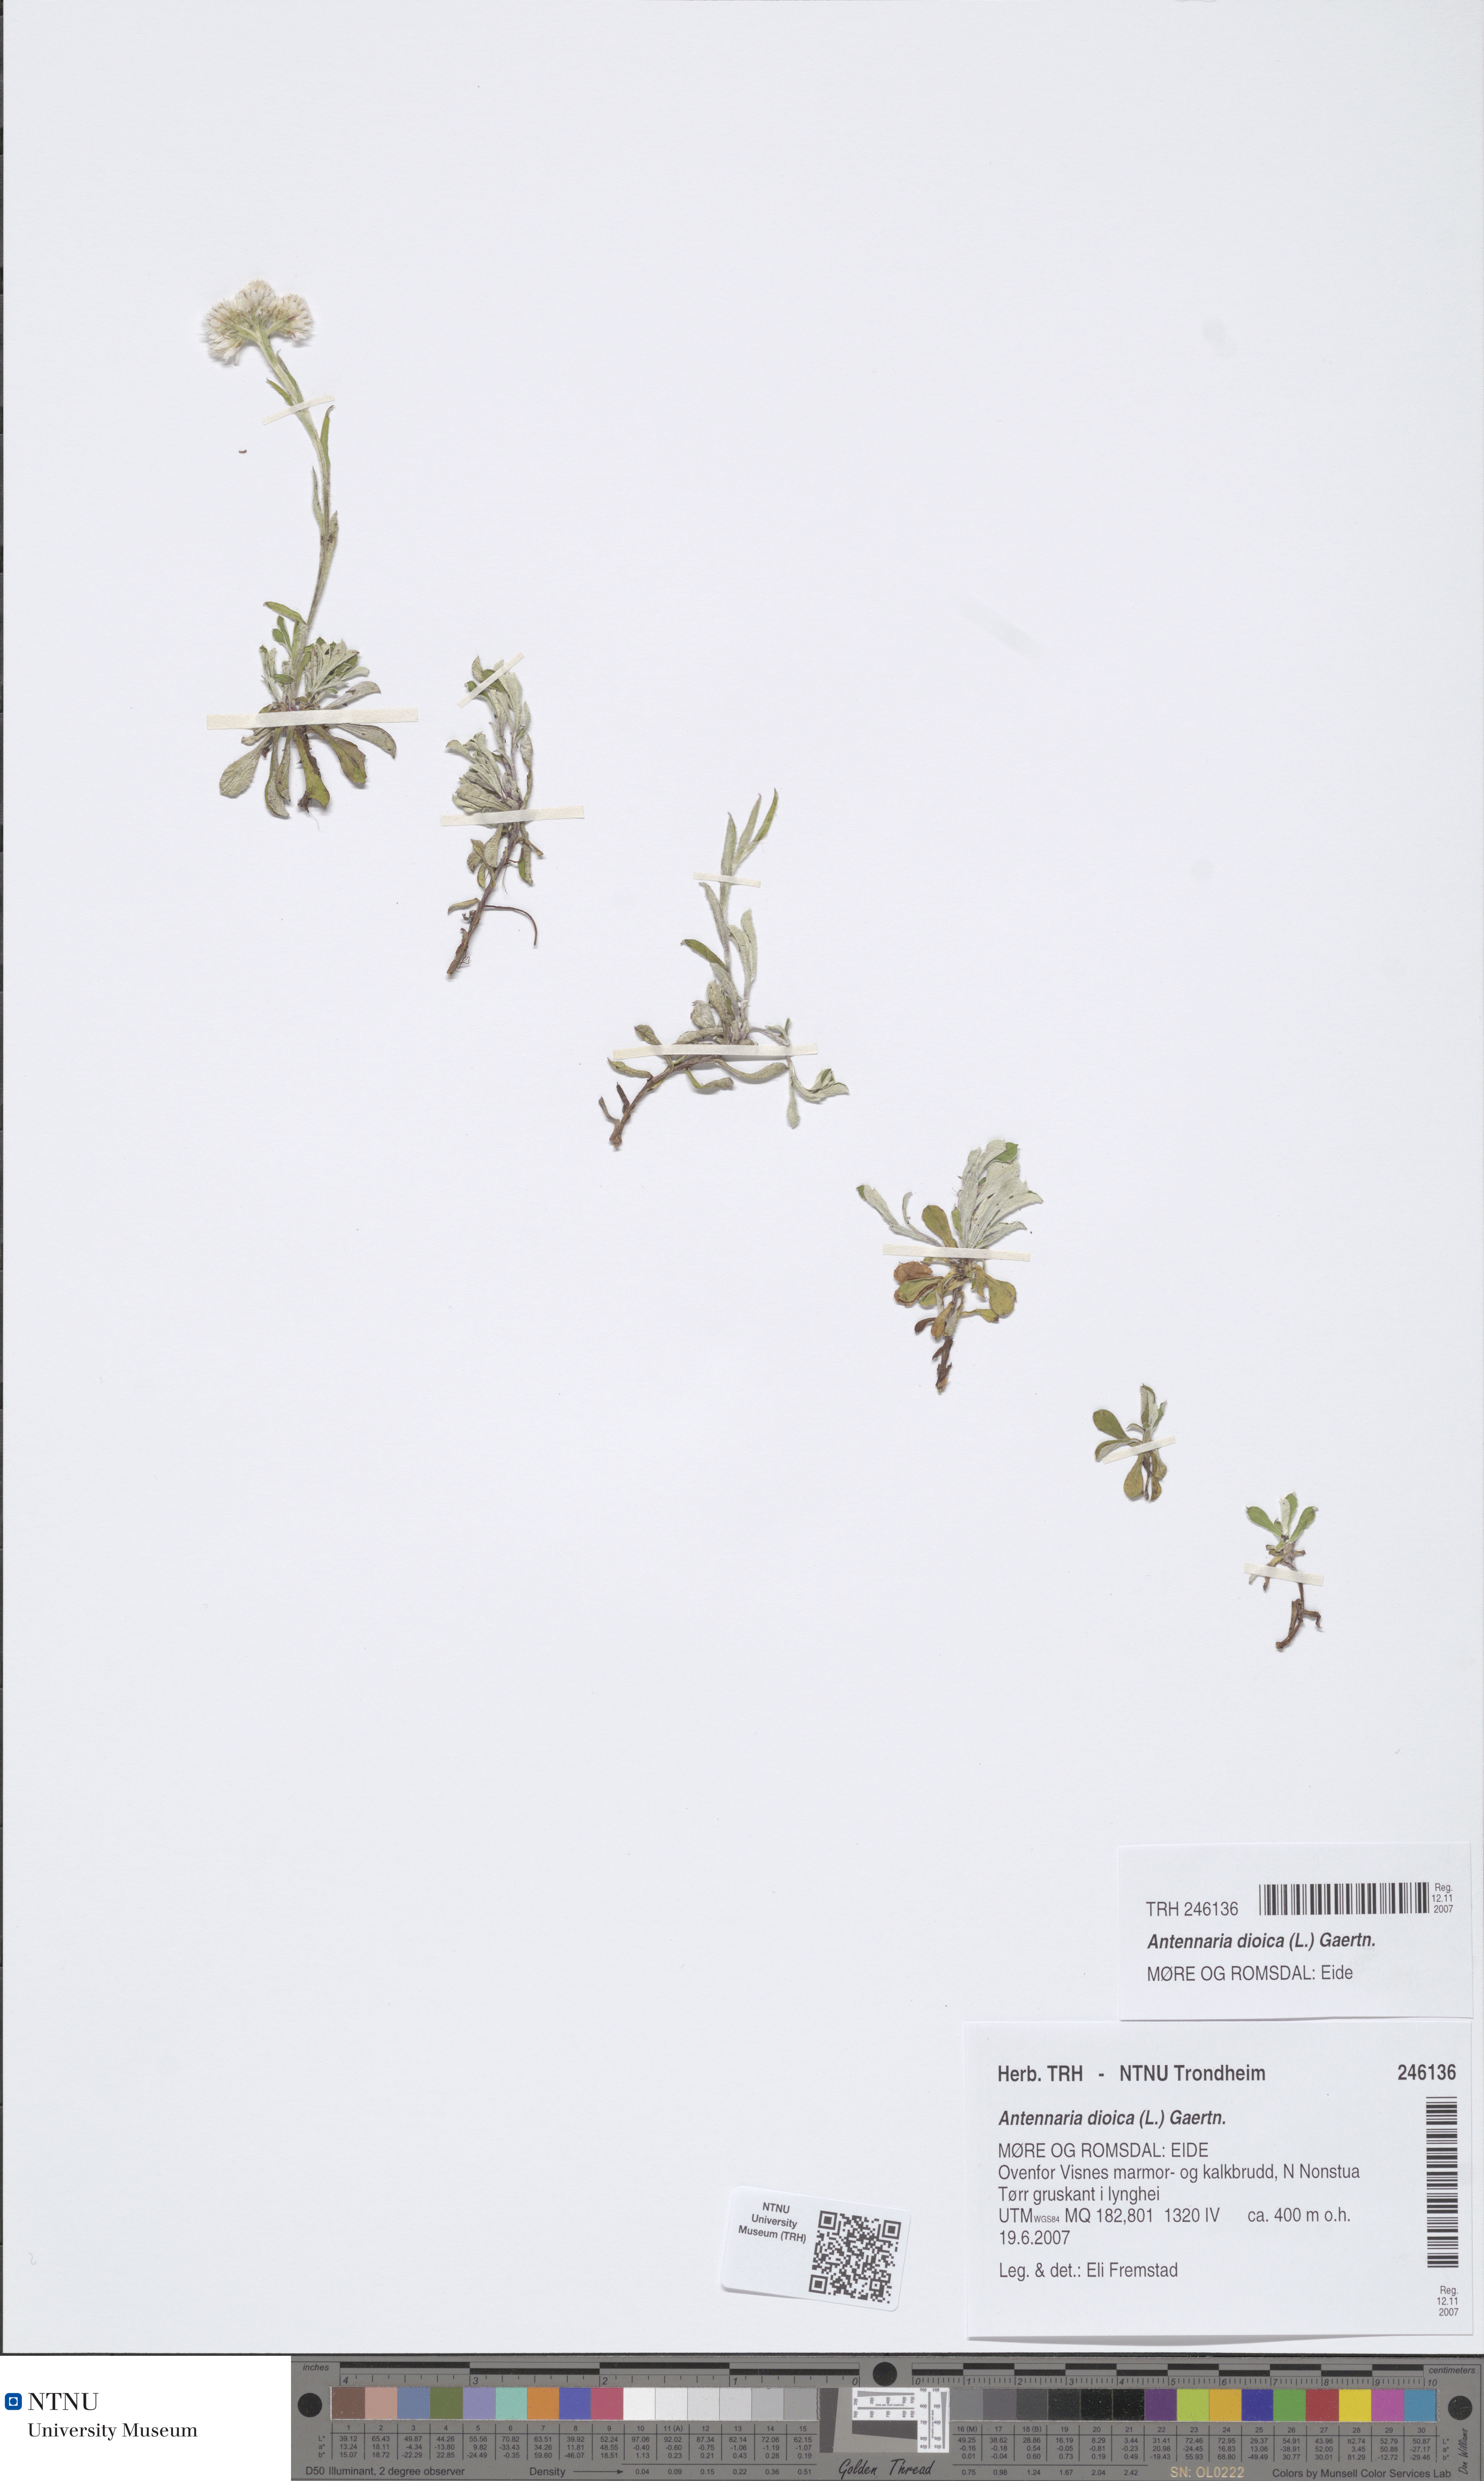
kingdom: Plantae
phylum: Tracheophyta
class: Magnoliopsida
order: Asterales
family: Asteraceae
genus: Antennaria
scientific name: Antennaria dioica
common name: Mountain everlasting
